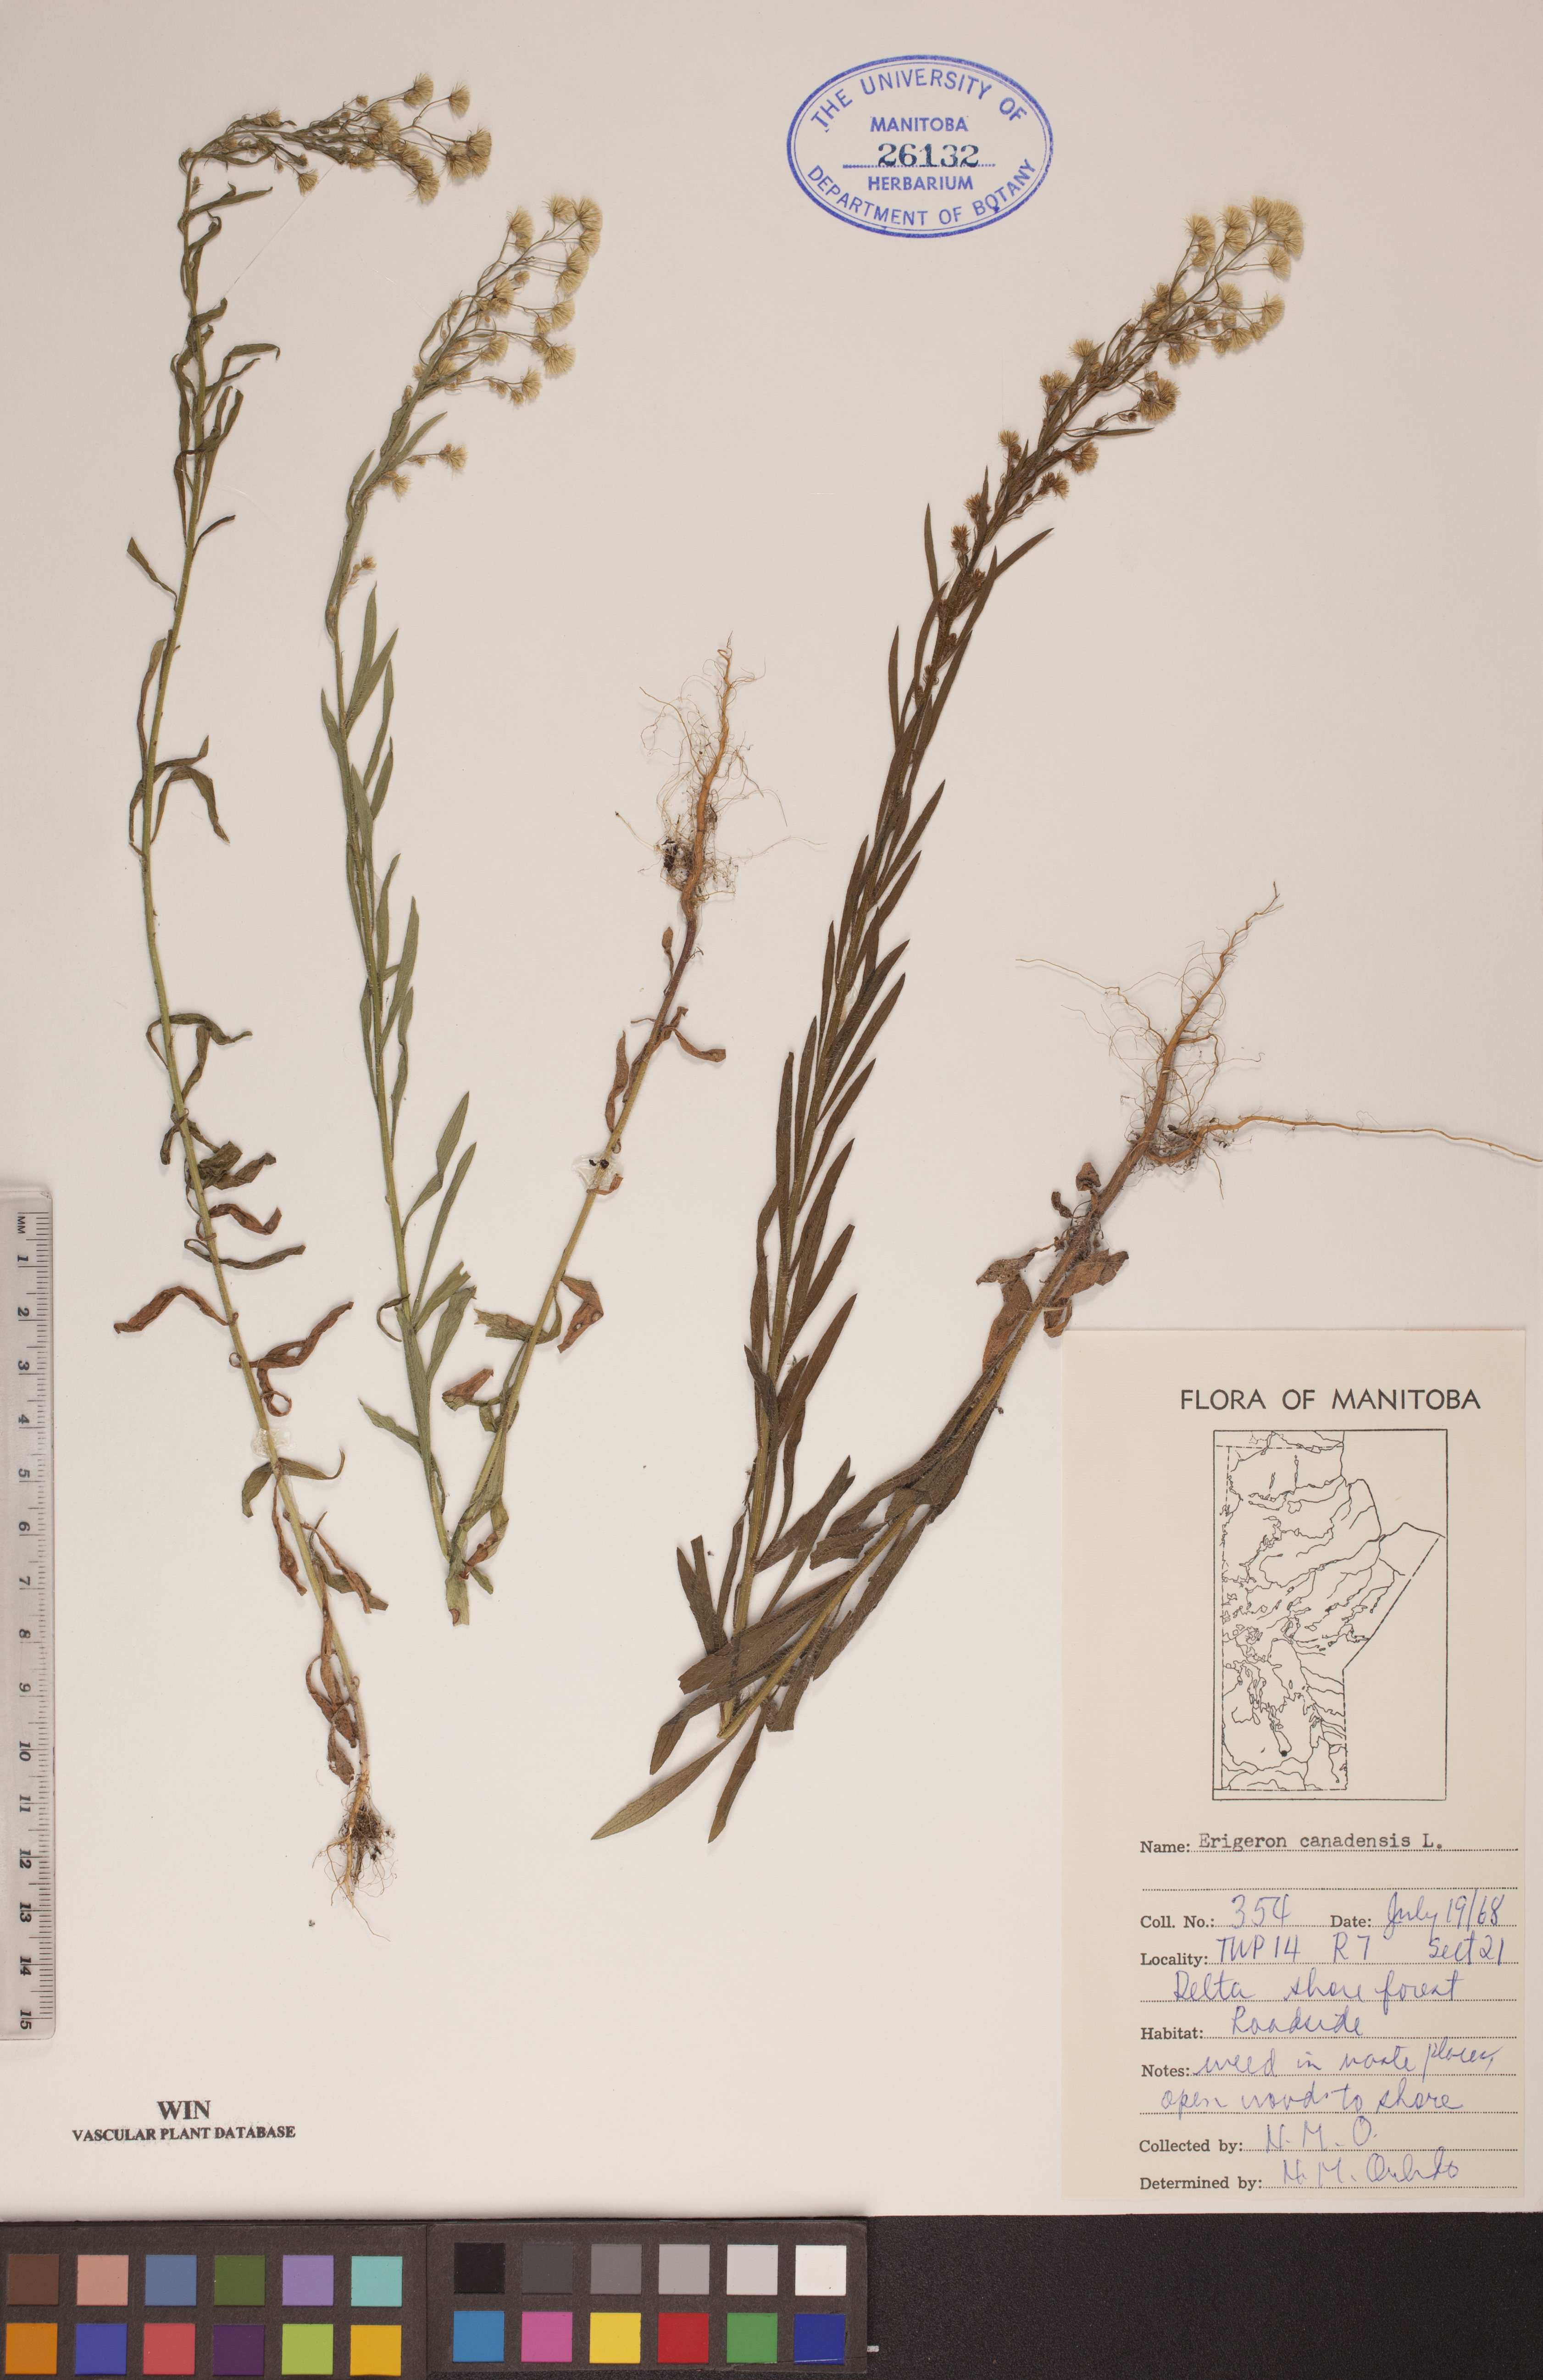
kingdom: Plantae
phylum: Tracheophyta
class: Magnoliopsida
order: Asterales
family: Asteraceae
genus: Erigeron
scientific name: Erigeron canadensis
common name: Canadian fleabane
